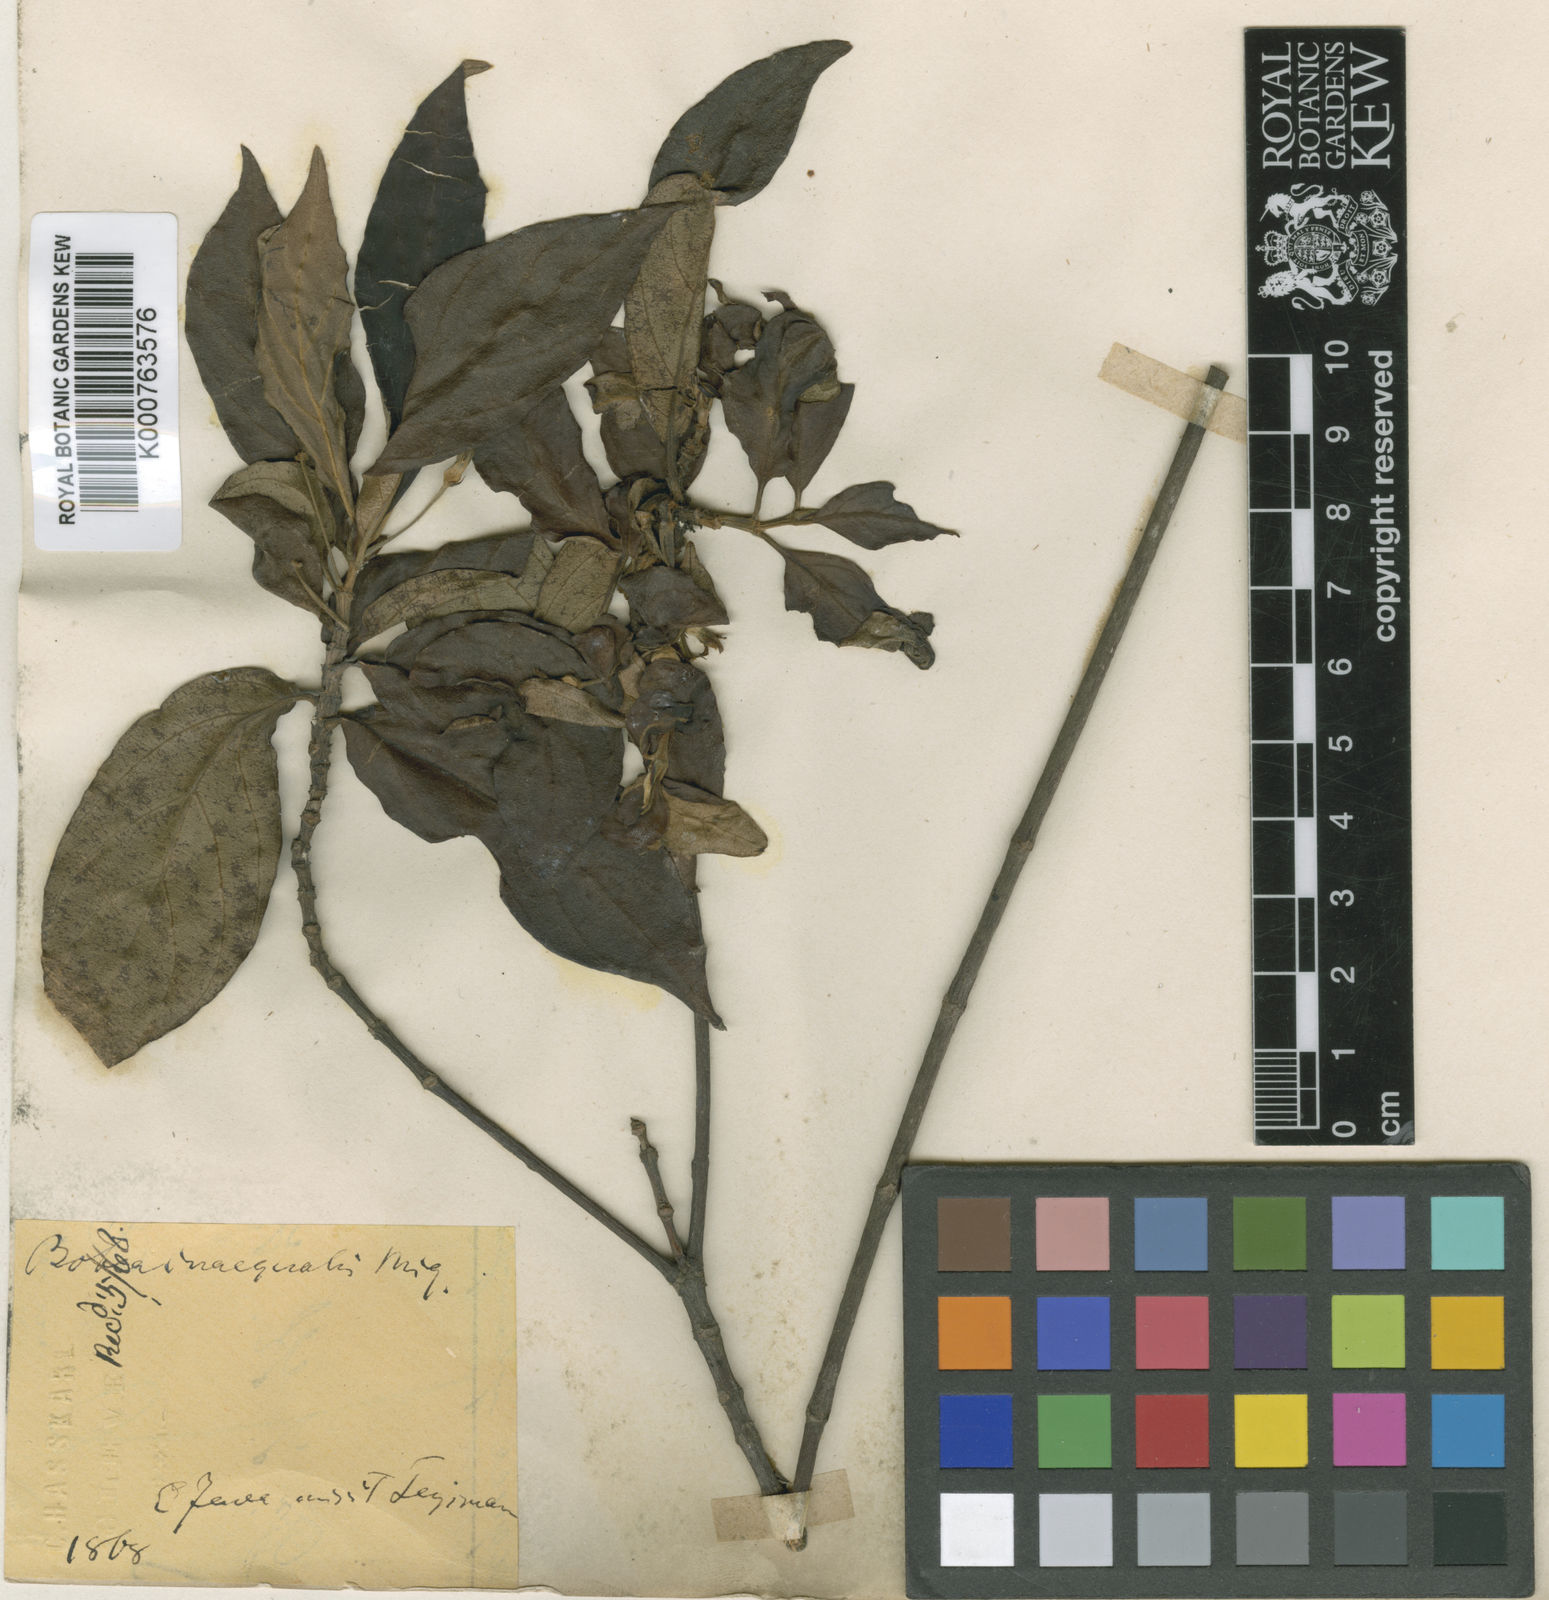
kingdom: Plantae
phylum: Tracheophyta
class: Magnoliopsida
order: Gentianales
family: Rubiaceae
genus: Timonius
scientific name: Timonius hydrangeifolius
